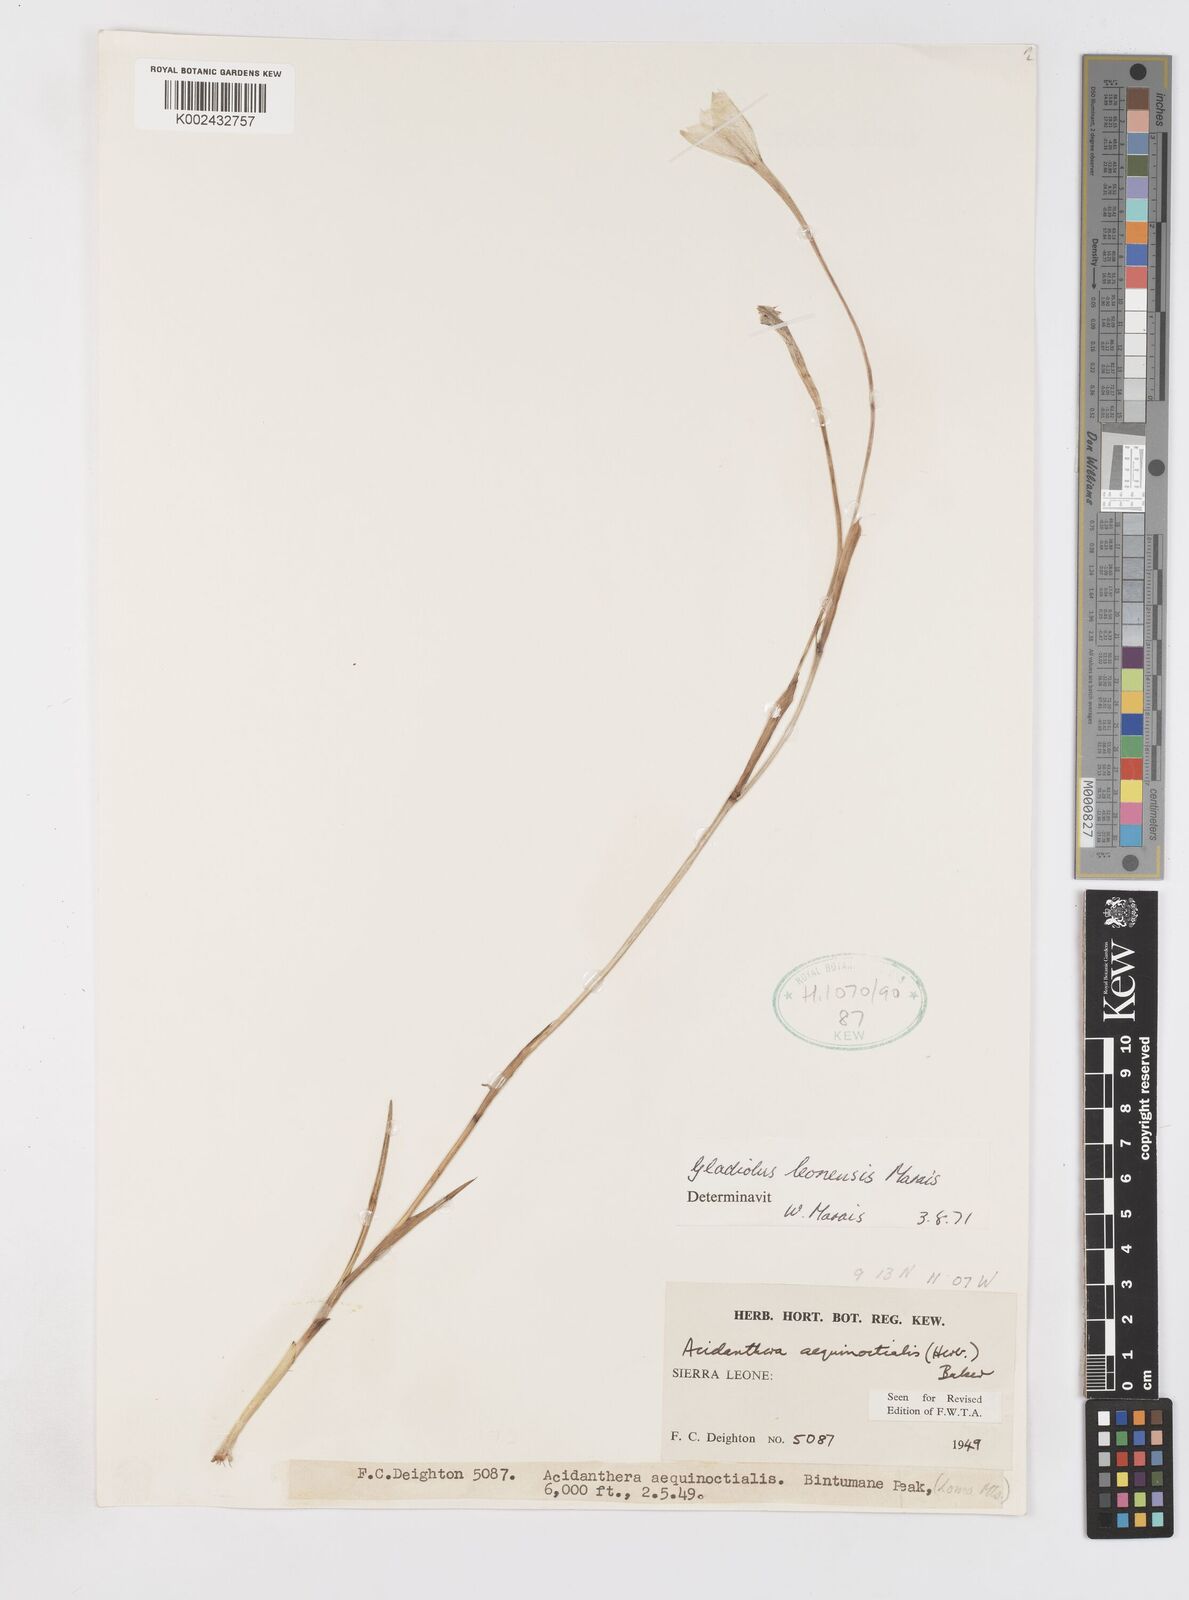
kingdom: Plantae
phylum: Tracheophyta
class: Liliopsida
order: Asparagales
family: Iridaceae
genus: Gladiolus
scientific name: Gladiolus leonensis
